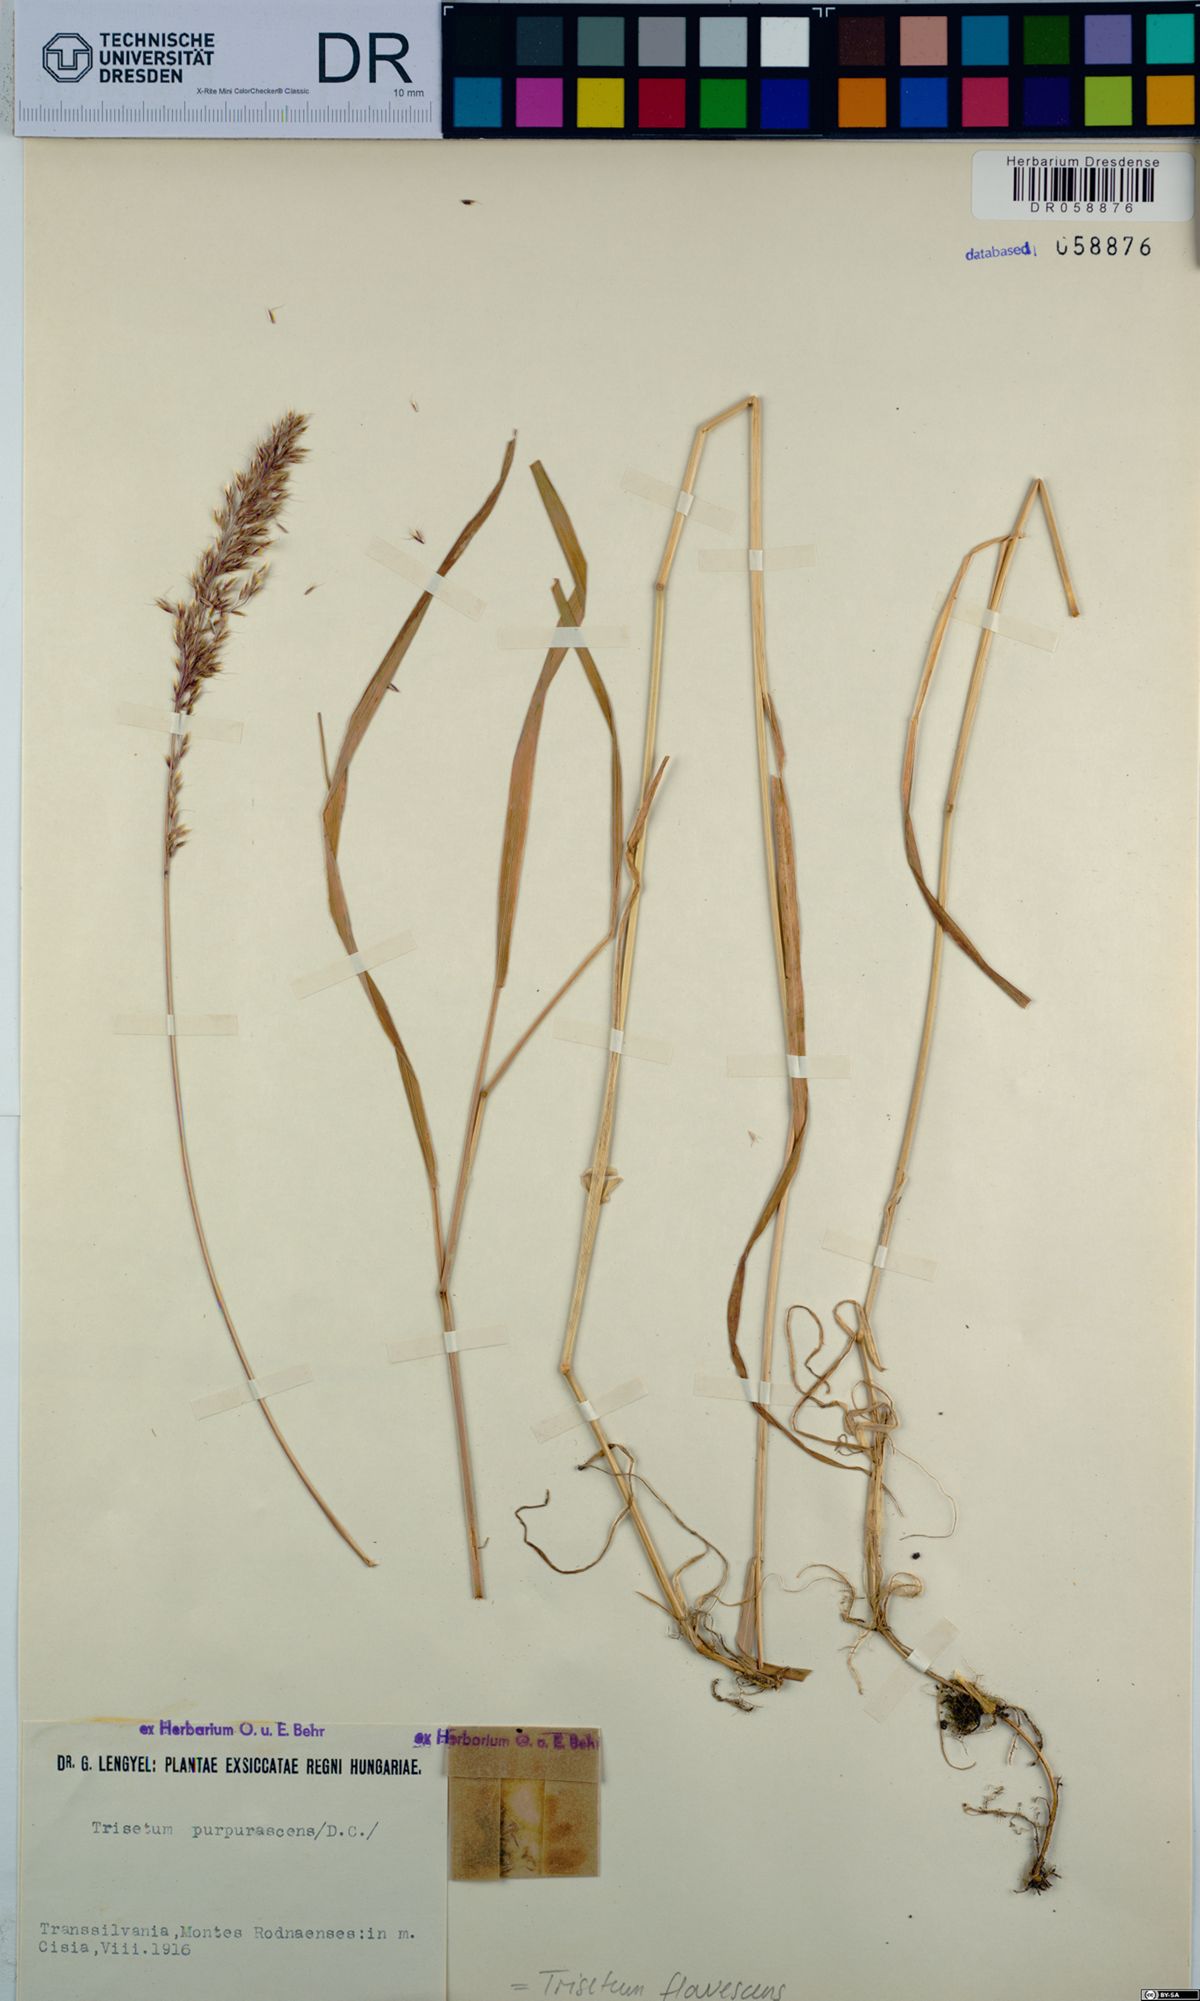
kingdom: Plantae
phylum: Tracheophyta
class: Liliopsida
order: Poales
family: Poaceae
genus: Trisetum
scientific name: Trisetum flavescens
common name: Yellow oat-grass
